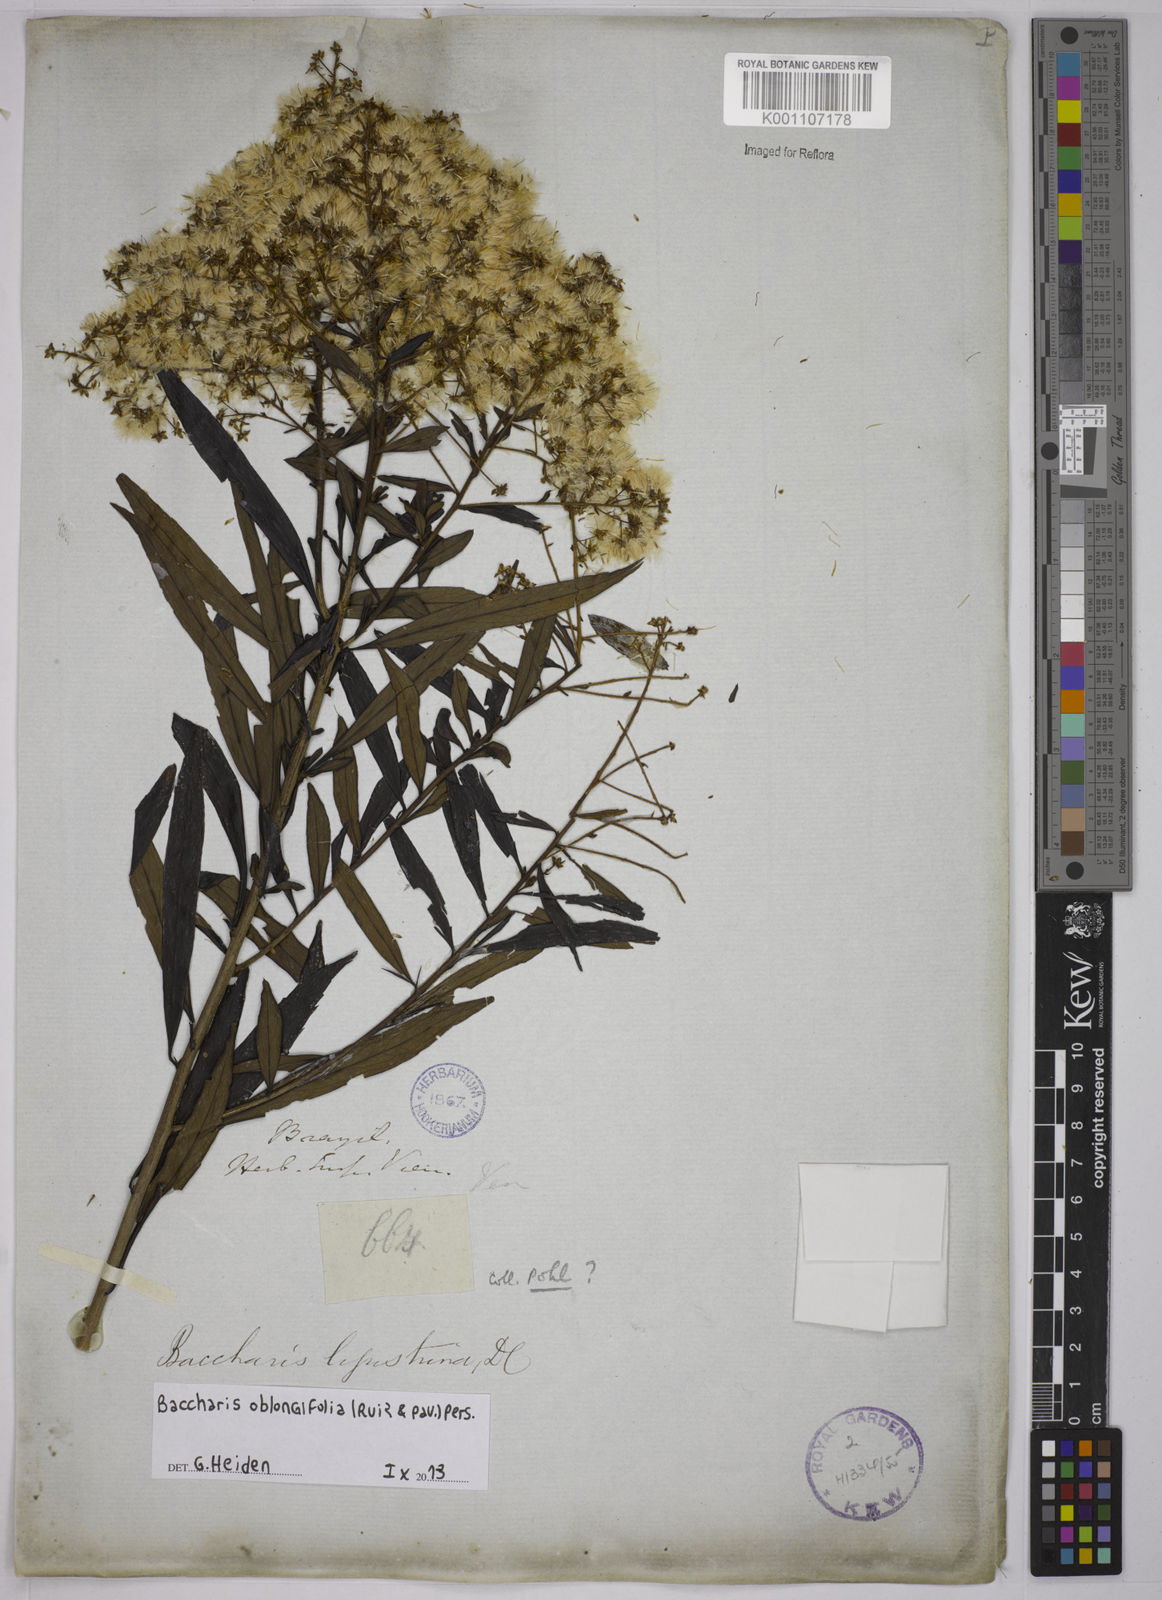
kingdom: Plantae
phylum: Tracheophyta
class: Magnoliopsida
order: Asterales
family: Asteraceae
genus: Baccharis
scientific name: Baccharis oblongifolia
